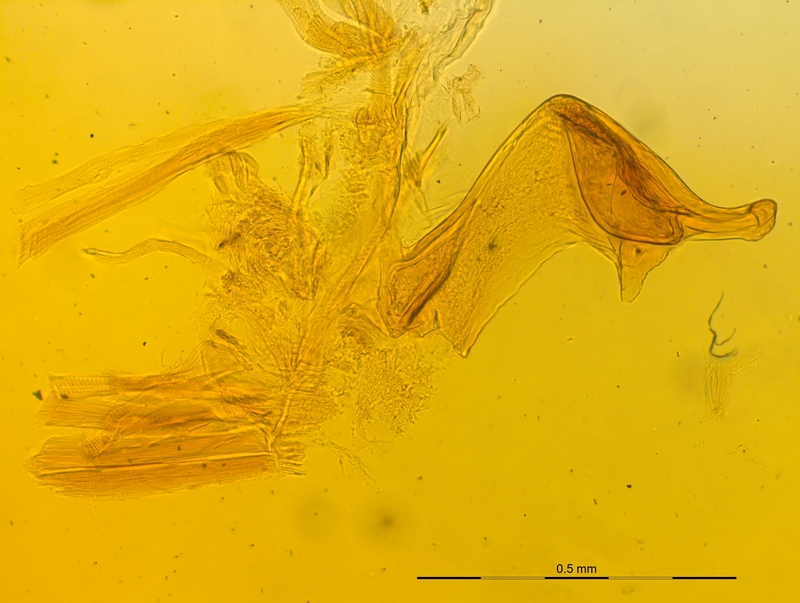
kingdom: Animalia
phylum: Arthropoda
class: Diplopoda
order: Chordeumatida
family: Craspedosomatidae
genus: Craspedosoma
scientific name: Craspedosoma rawlinsii
